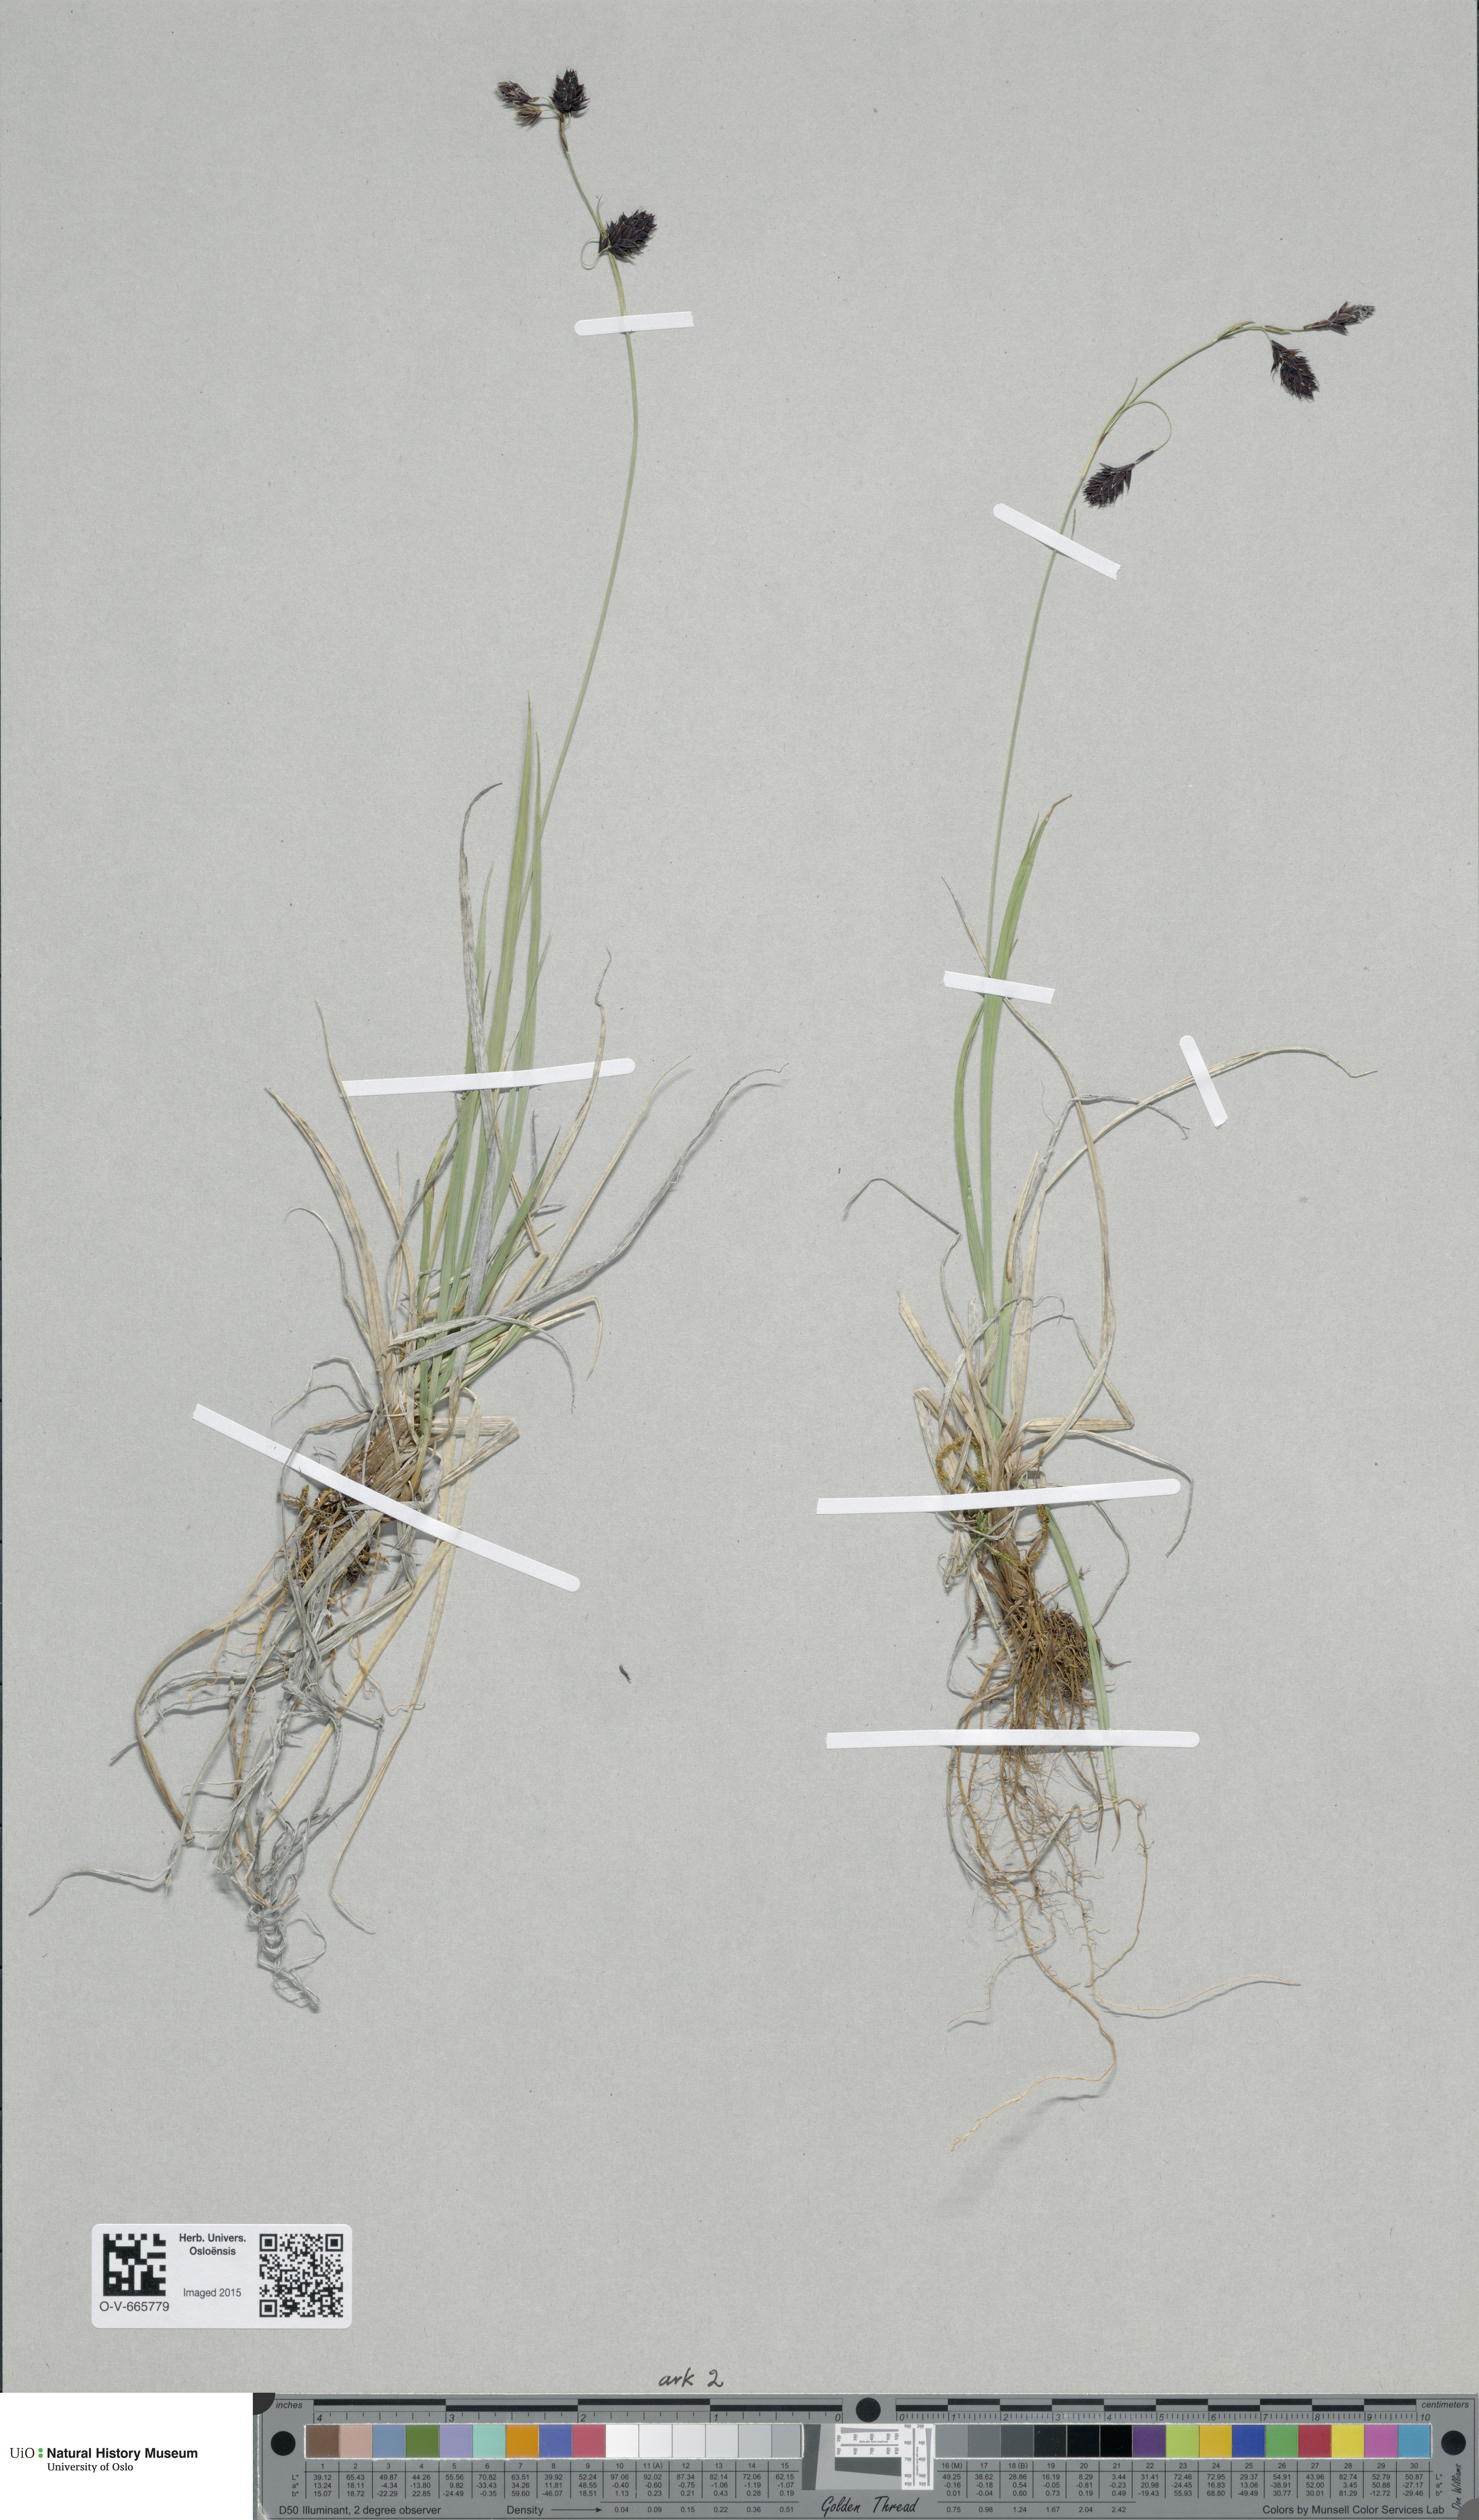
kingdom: Plantae
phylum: Tracheophyta
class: Liliopsida
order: Poales
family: Cyperaceae
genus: Carex
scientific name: Carex atrofusca
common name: Scorched alpine-sedge
